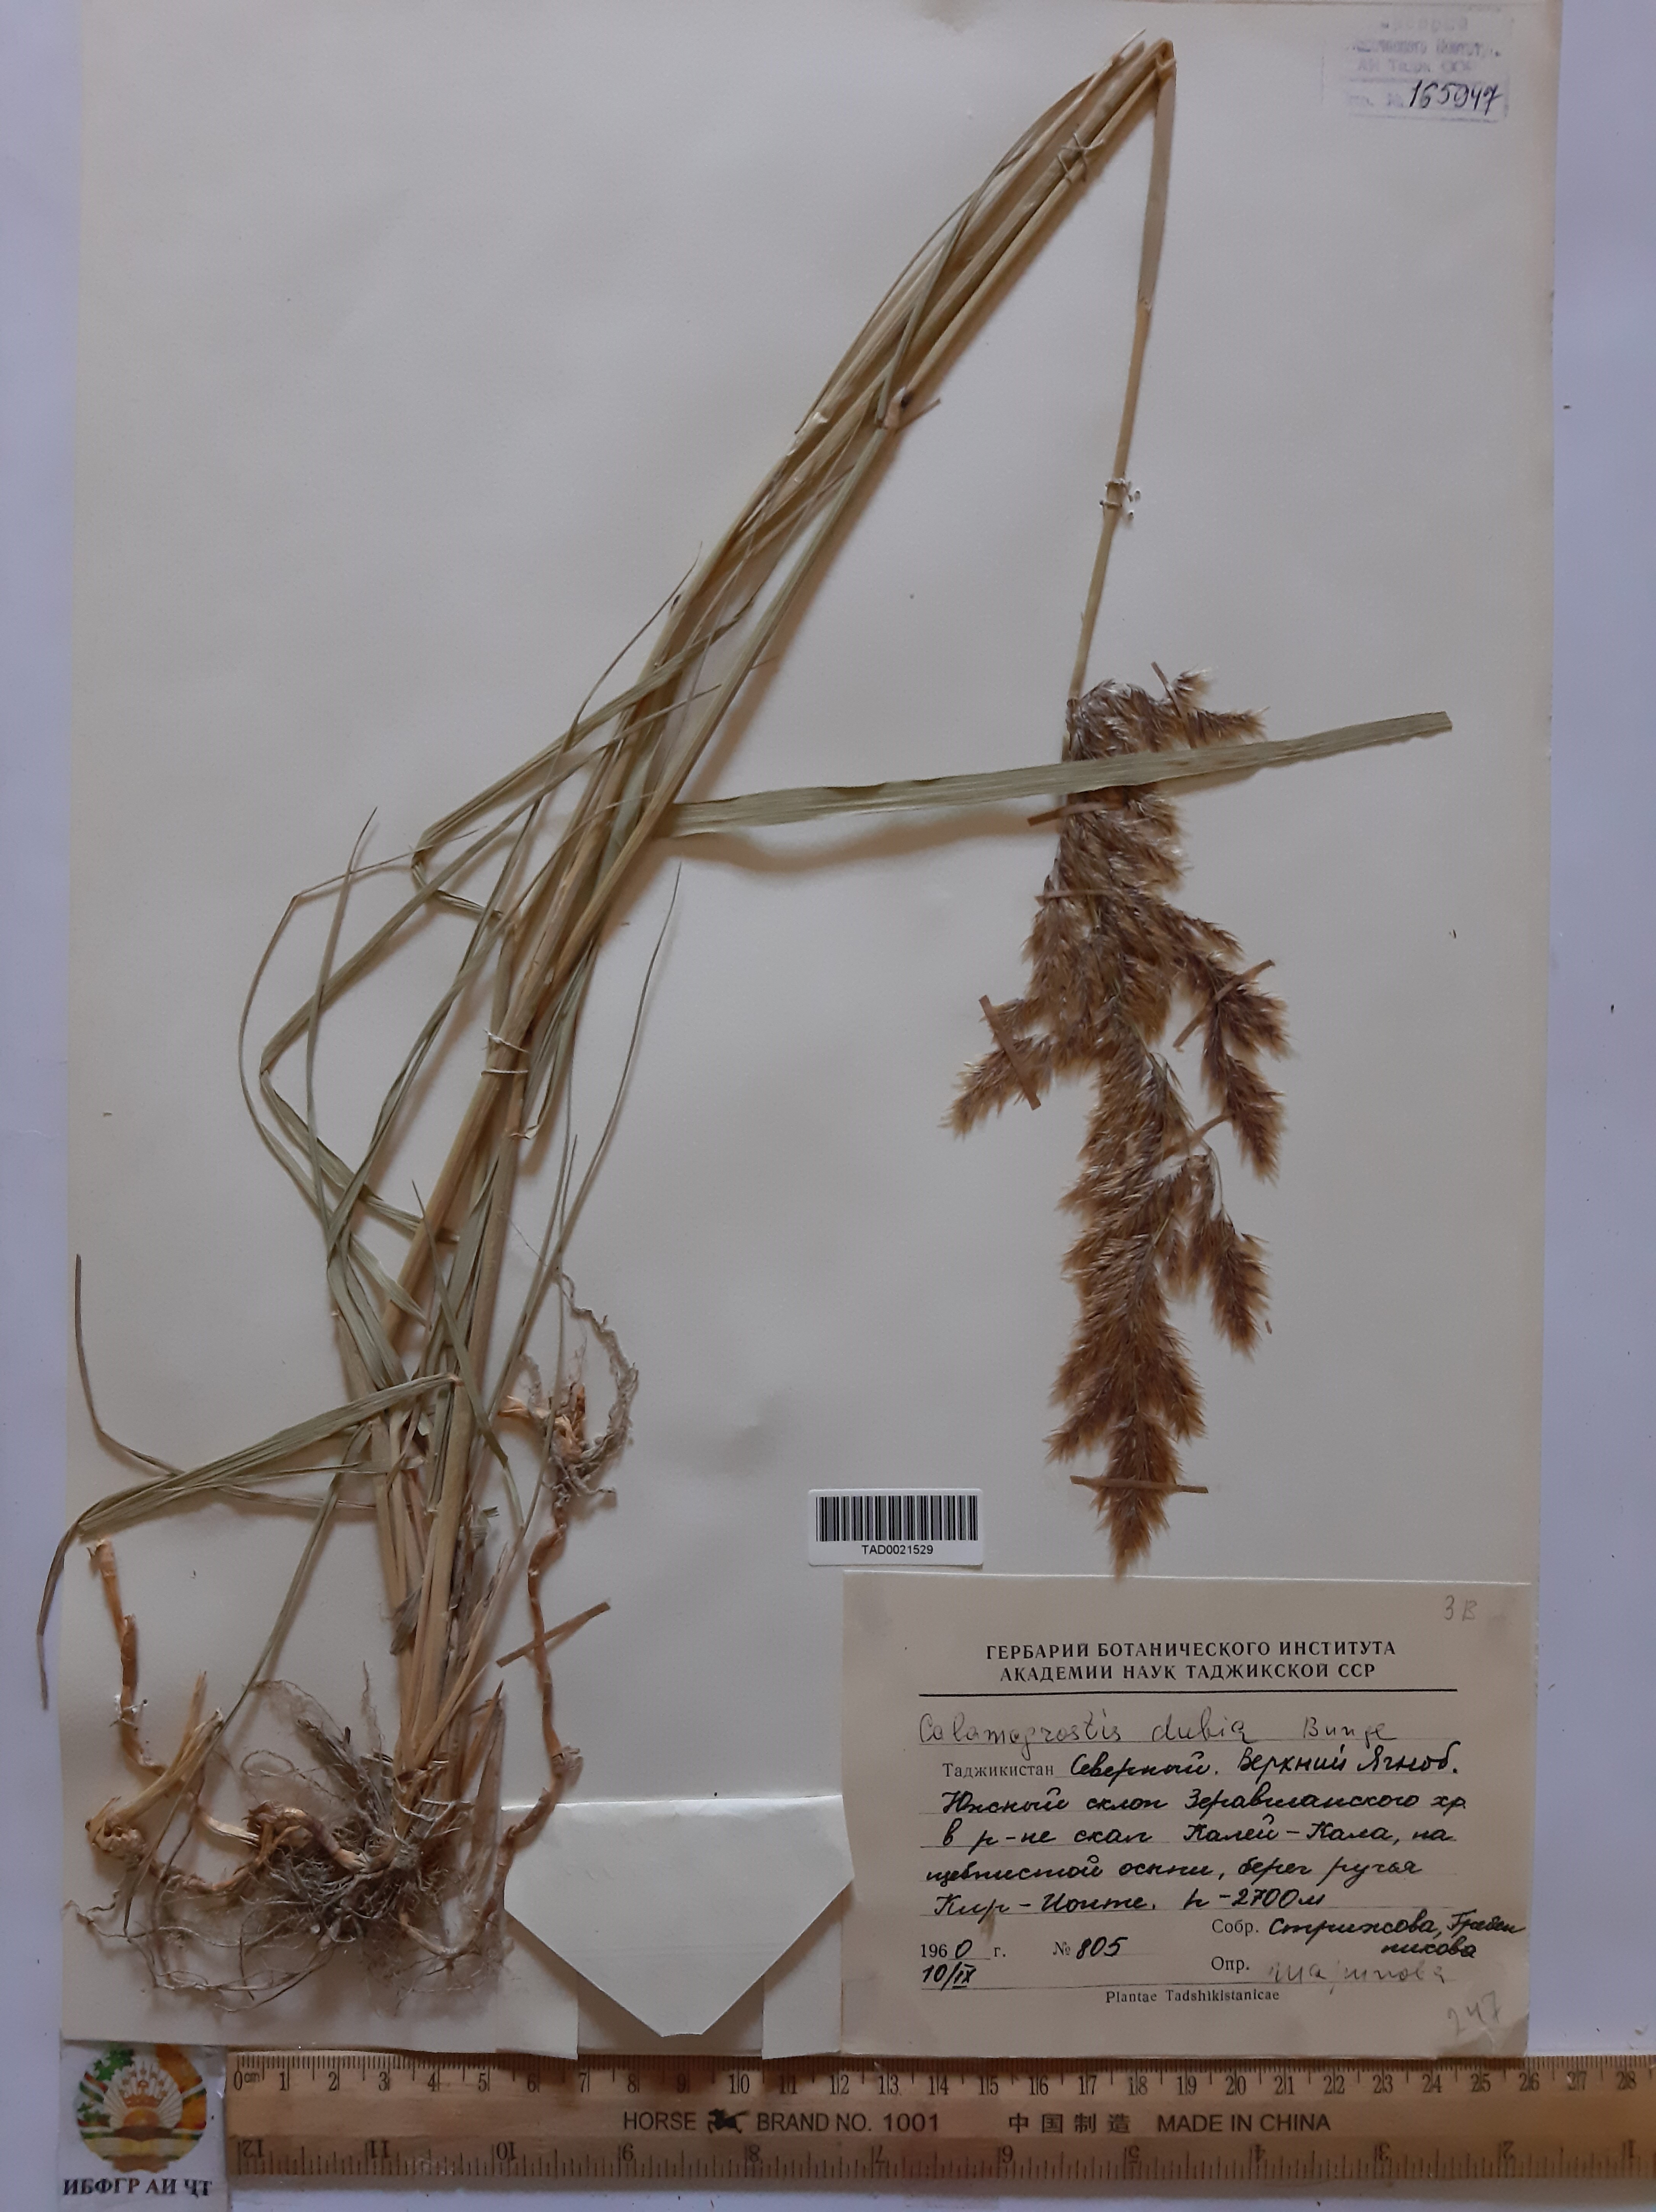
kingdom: Plantae
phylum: Tracheophyta
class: Liliopsida
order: Poales
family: Poaceae
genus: Calamagrostis
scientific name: Calamagrostis pseudophragmites
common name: Coastal small-reed
